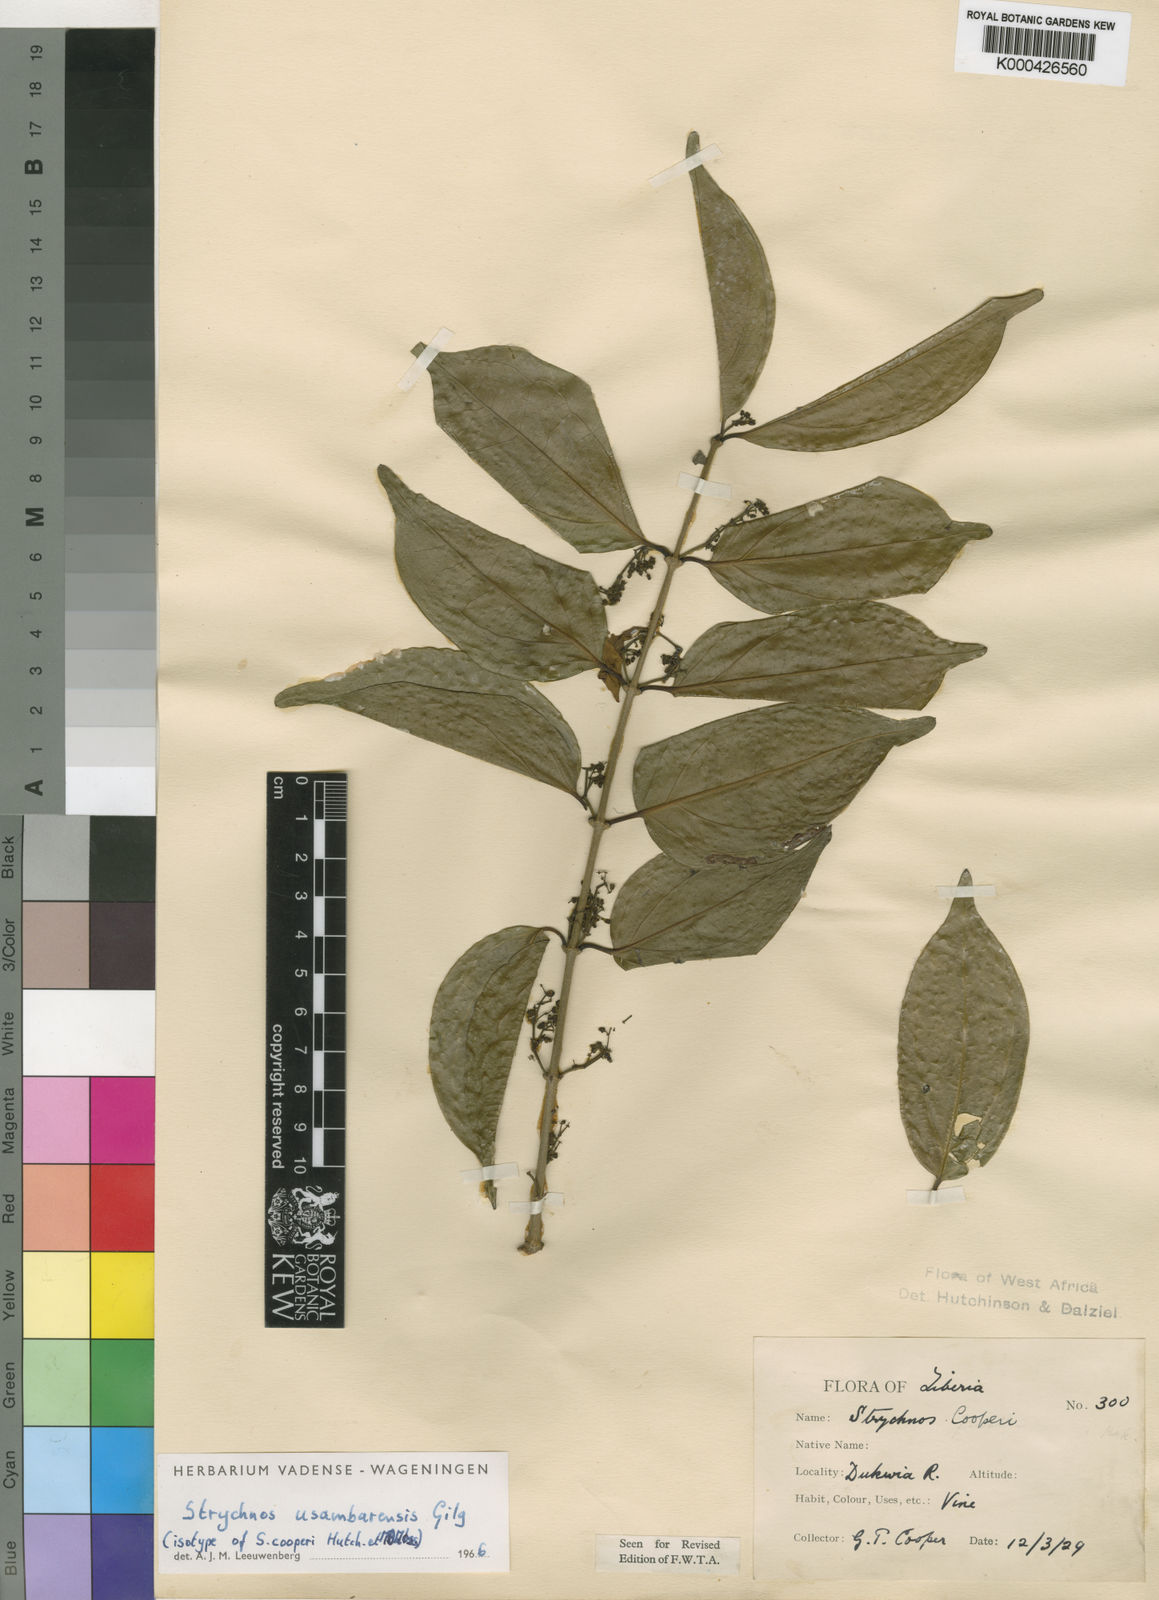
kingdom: Plantae
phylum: Tracheophyta
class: Magnoliopsida
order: Gentianales
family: Loganiaceae
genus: Strychnos
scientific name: Strychnos
